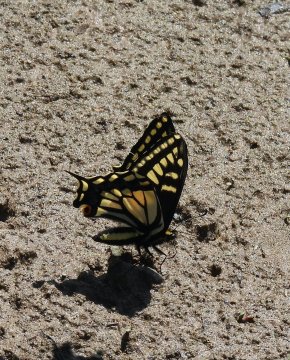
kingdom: Animalia
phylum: Arthropoda
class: Insecta
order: Lepidoptera
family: Papilionidae
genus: Papilio
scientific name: Papilio zelicaon
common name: Anise Swallowtail
